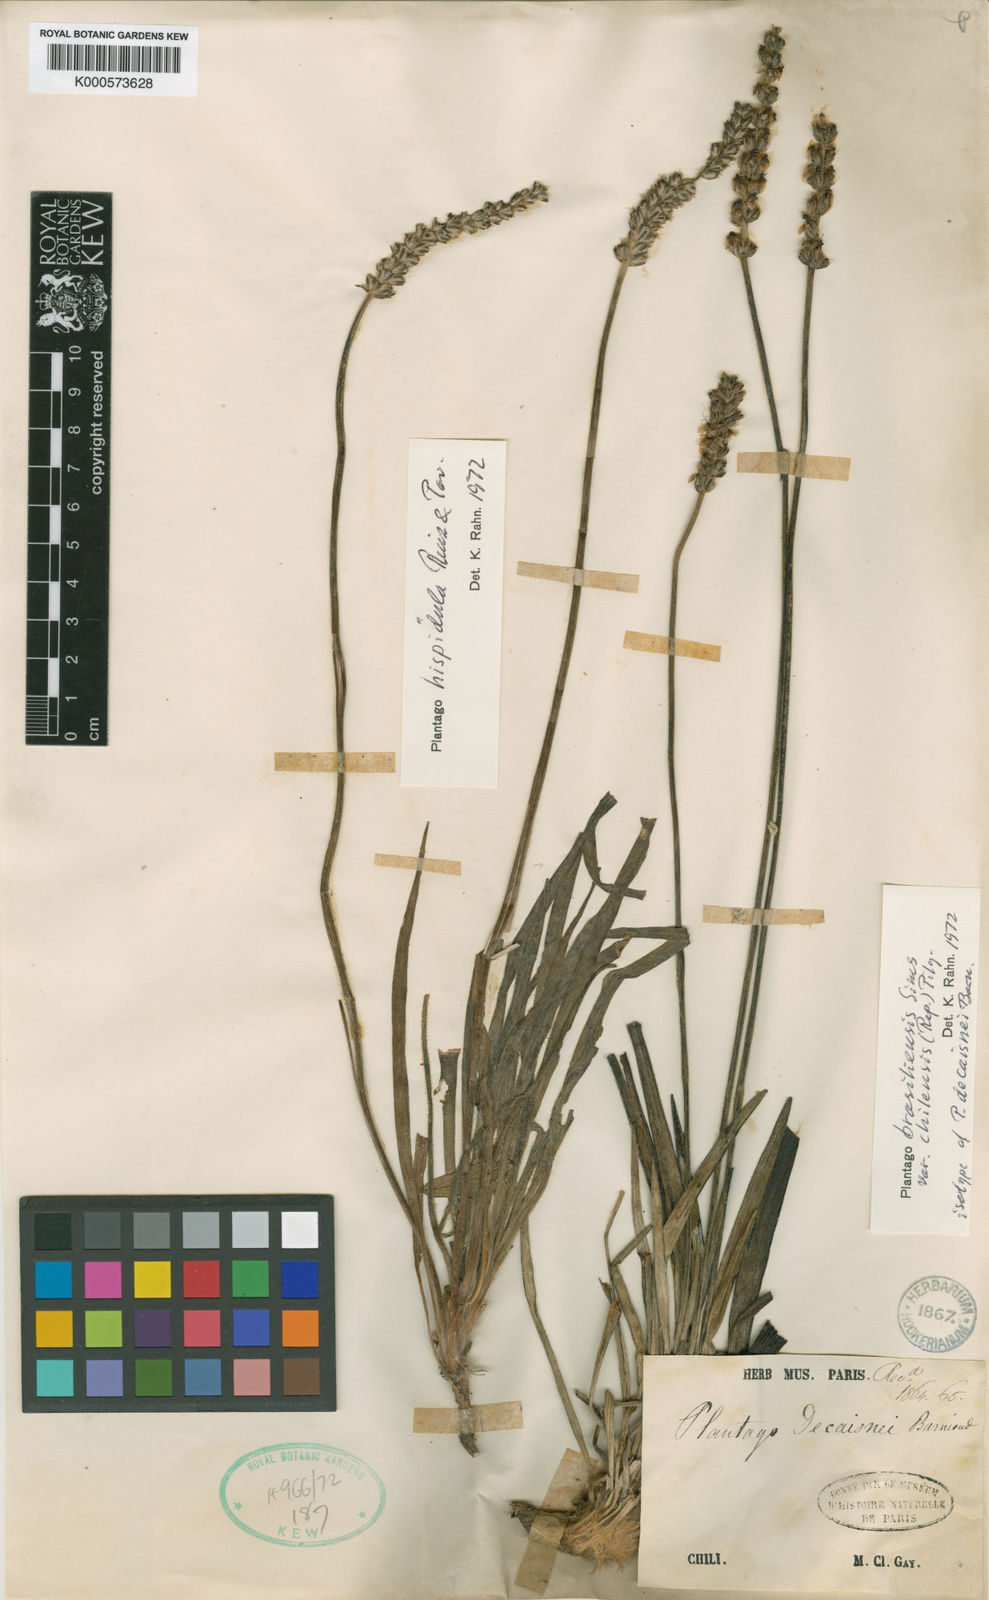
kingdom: Plantae
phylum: Tracheophyta
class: Magnoliopsida
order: Lamiales
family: Plantaginaceae
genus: Plantago
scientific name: Plantago
